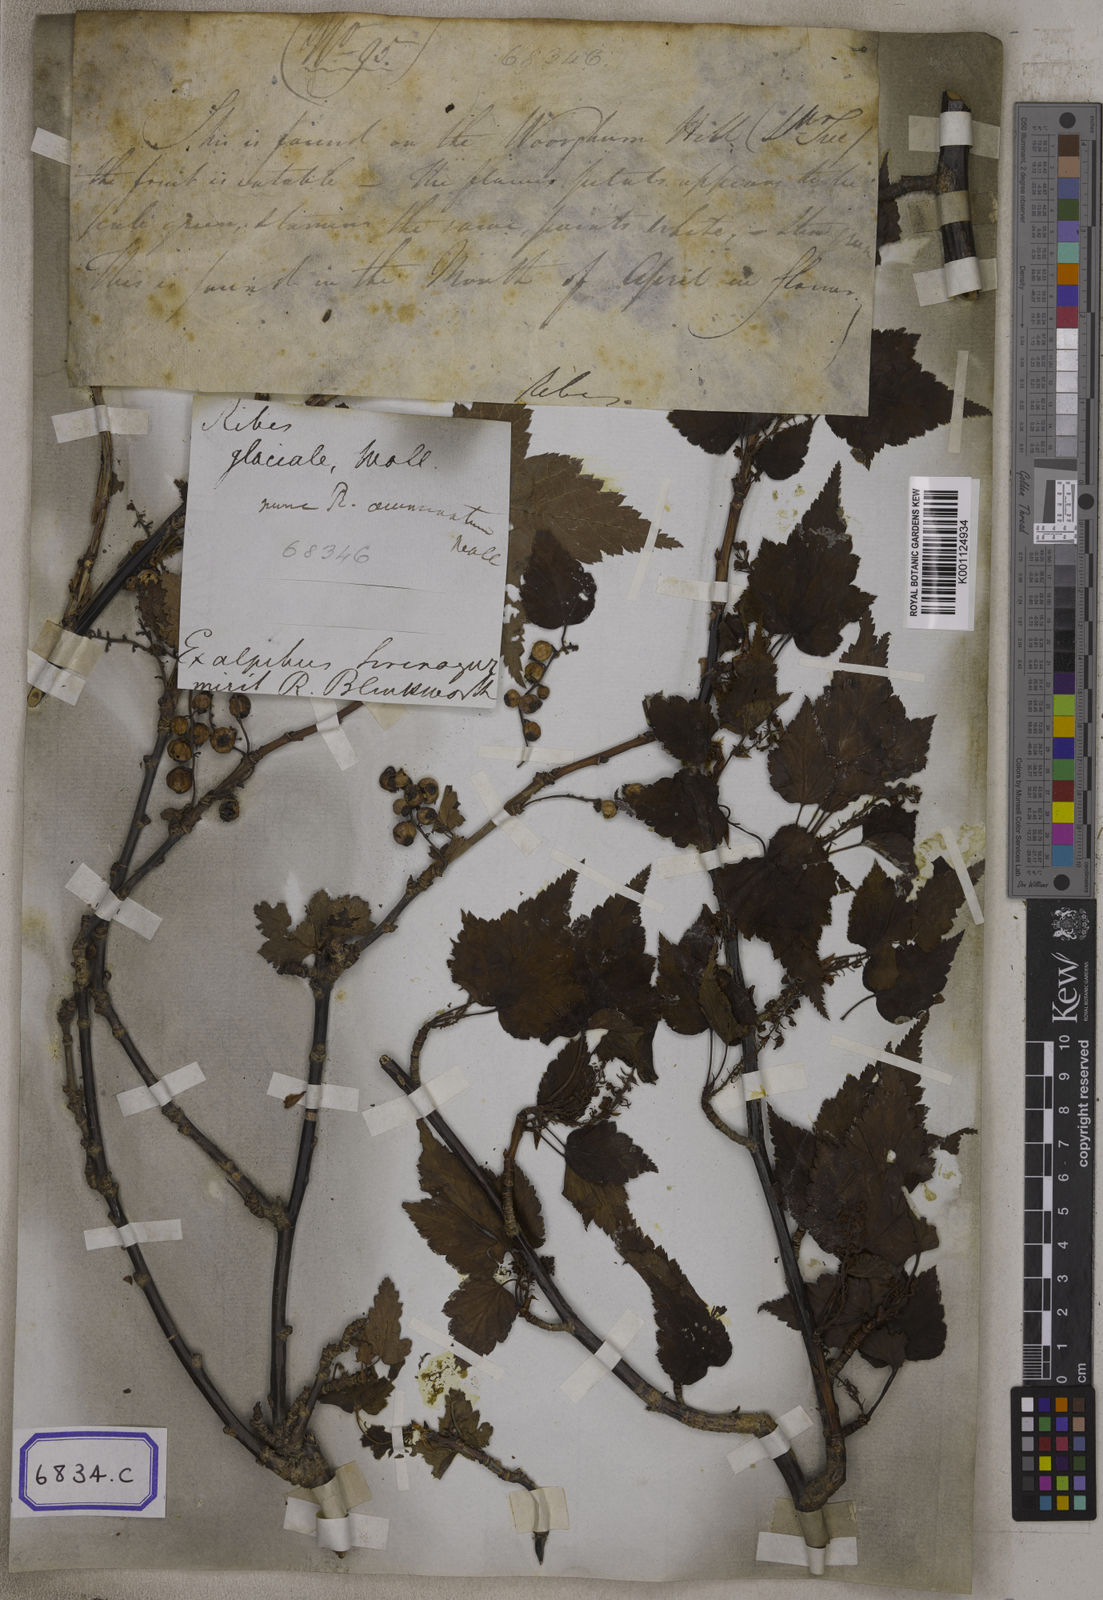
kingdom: Plantae
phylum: Tracheophyta
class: Magnoliopsida
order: Saxifragales
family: Grossulariaceae
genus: Ribes
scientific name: Ribes
